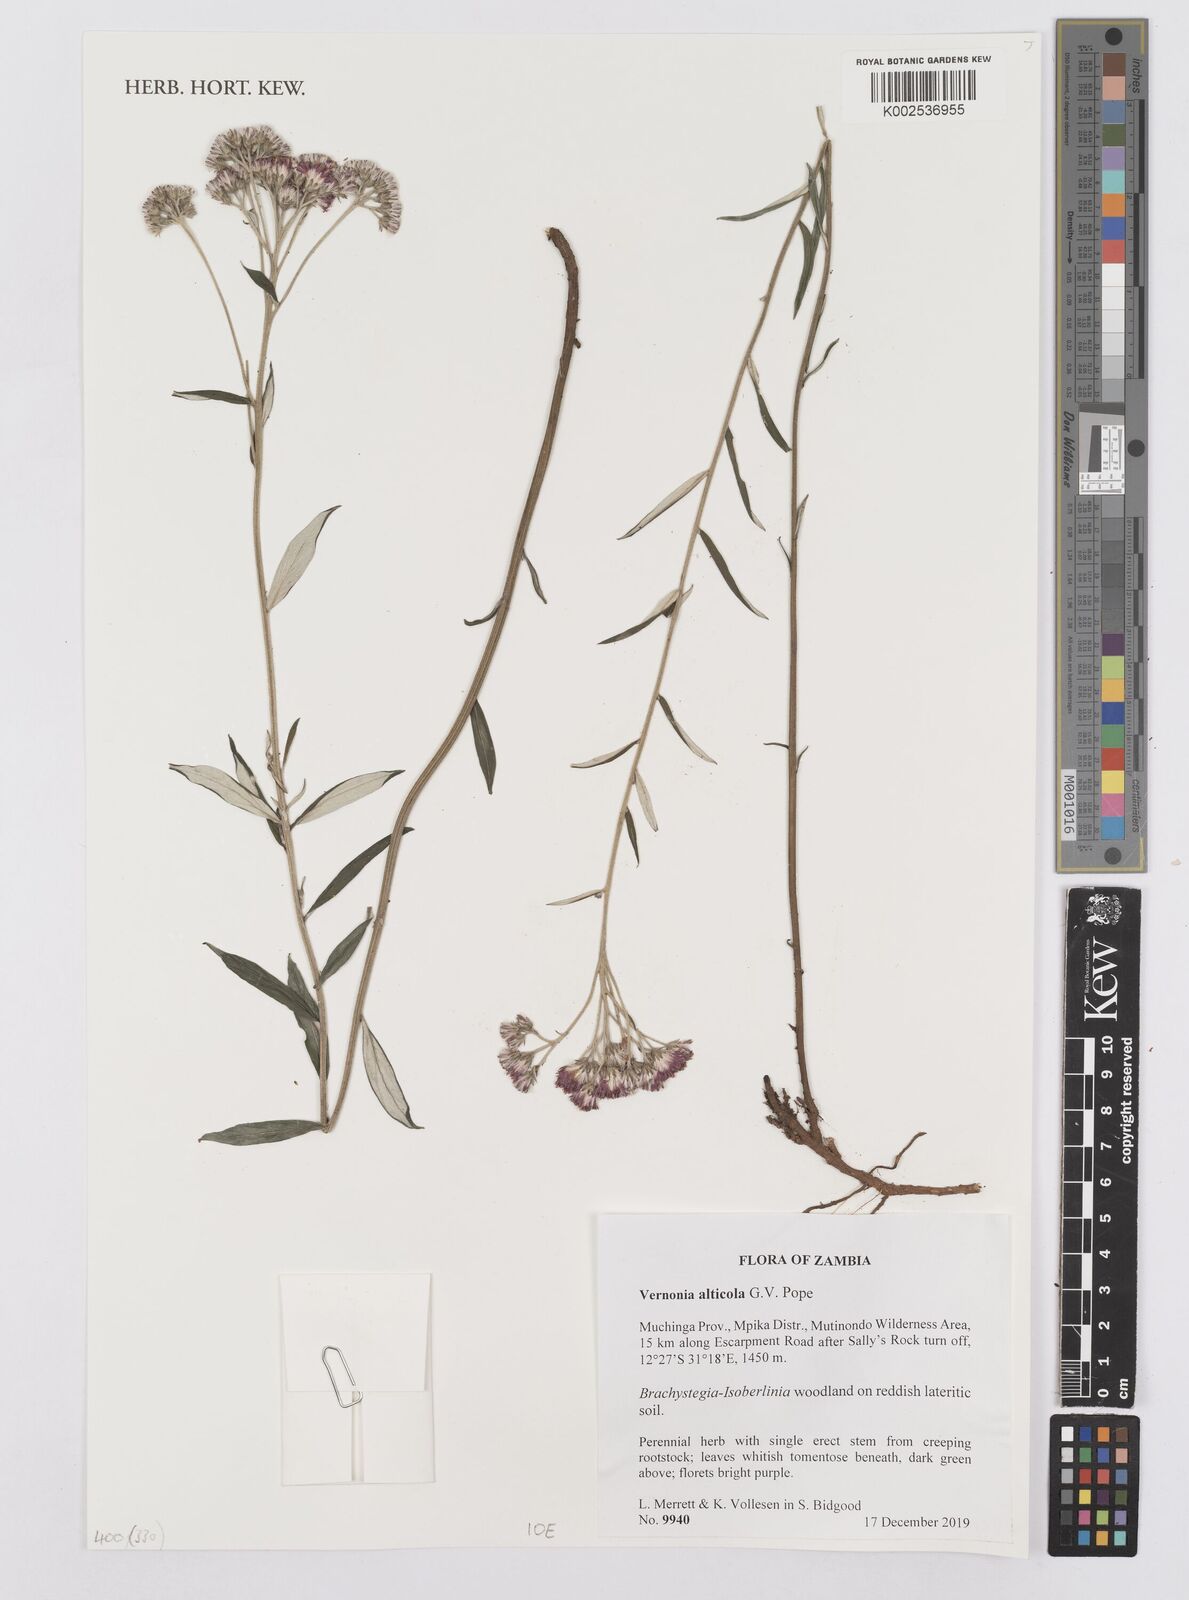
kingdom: Plantae
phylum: Tracheophyta
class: Magnoliopsida
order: Asterales
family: Asteraceae
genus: Vernonia
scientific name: Vernonia alticola
